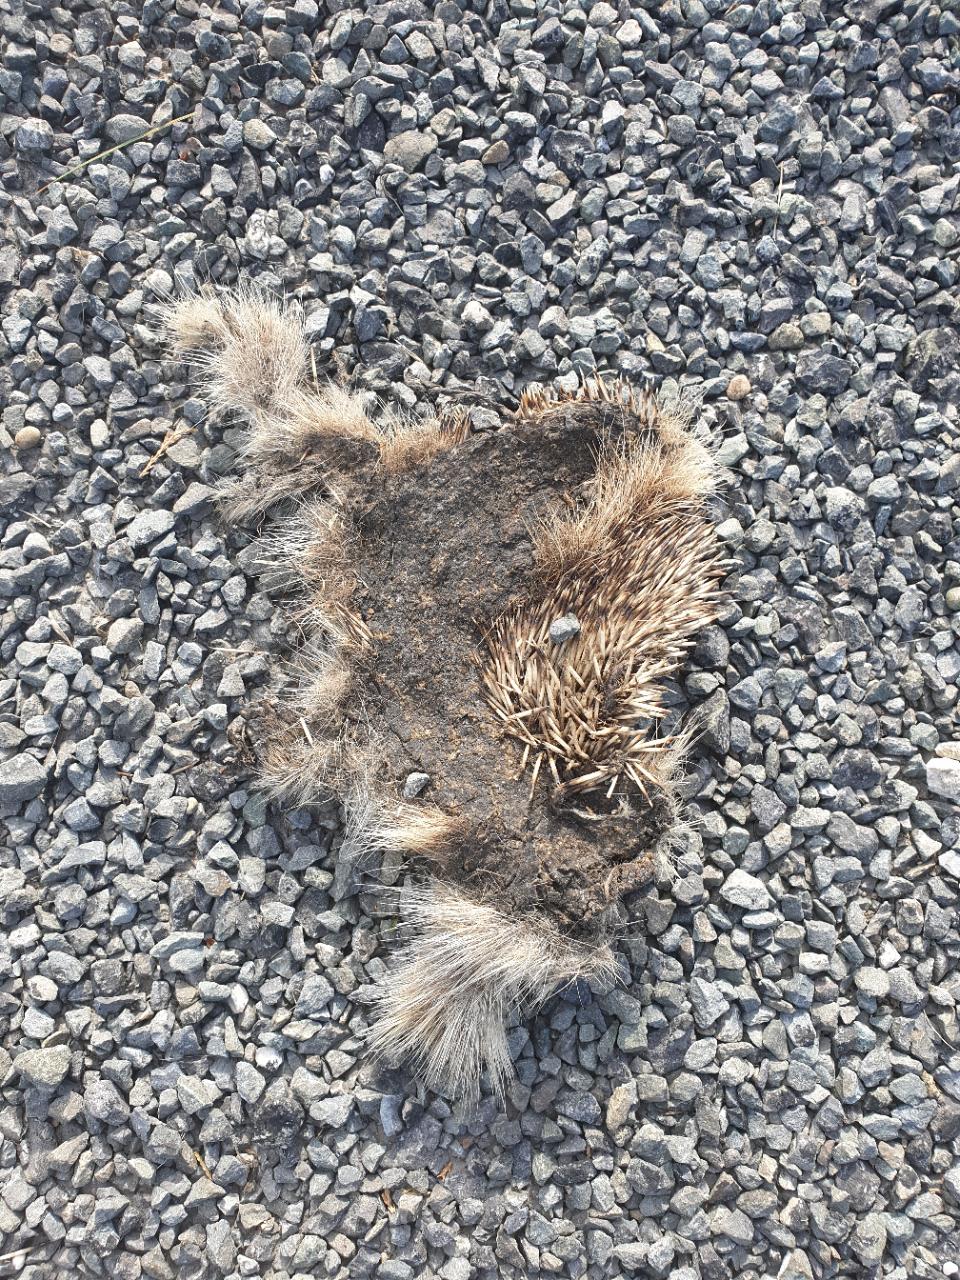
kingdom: Animalia
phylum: Chordata
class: Mammalia
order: Erinaceomorpha
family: Erinaceidae
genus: Erinaceus
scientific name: Erinaceus
